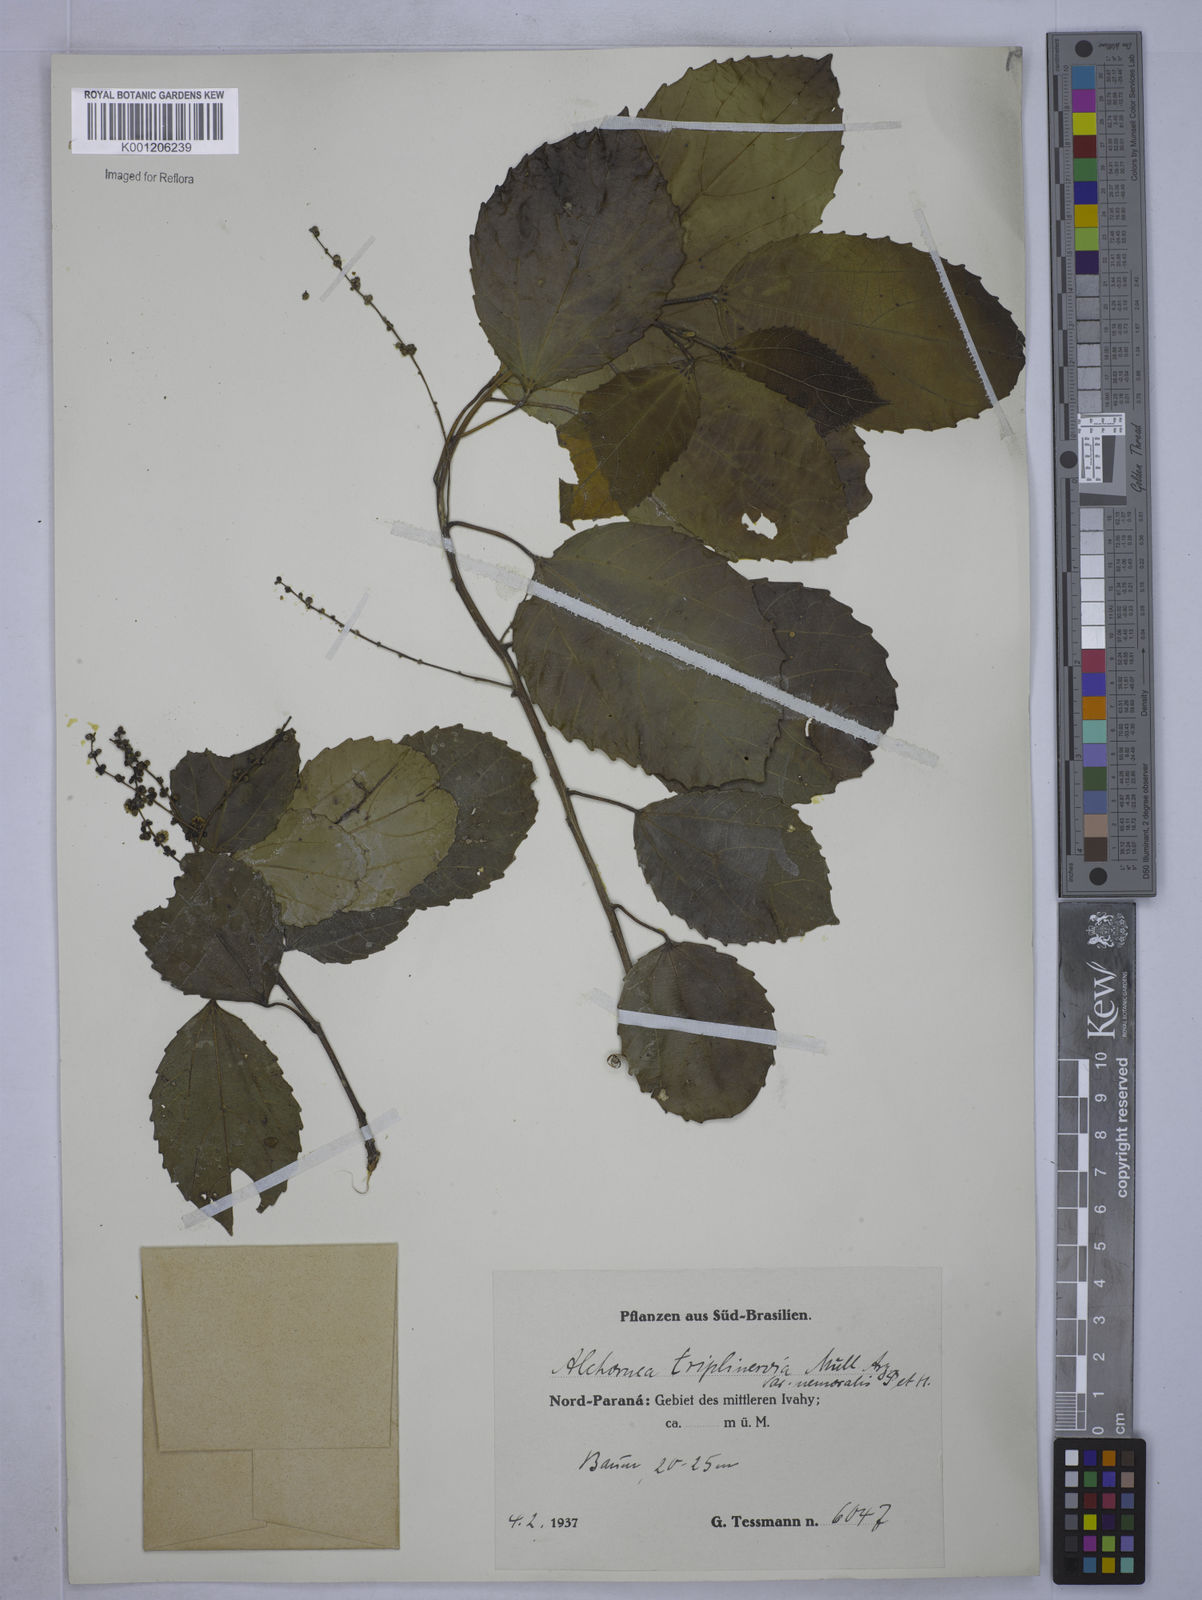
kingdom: Plantae
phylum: Tracheophyta
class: Magnoliopsida
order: Malpighiales
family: Euphorbiaceae
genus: Alchornea
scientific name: Alchornea triplinervia
